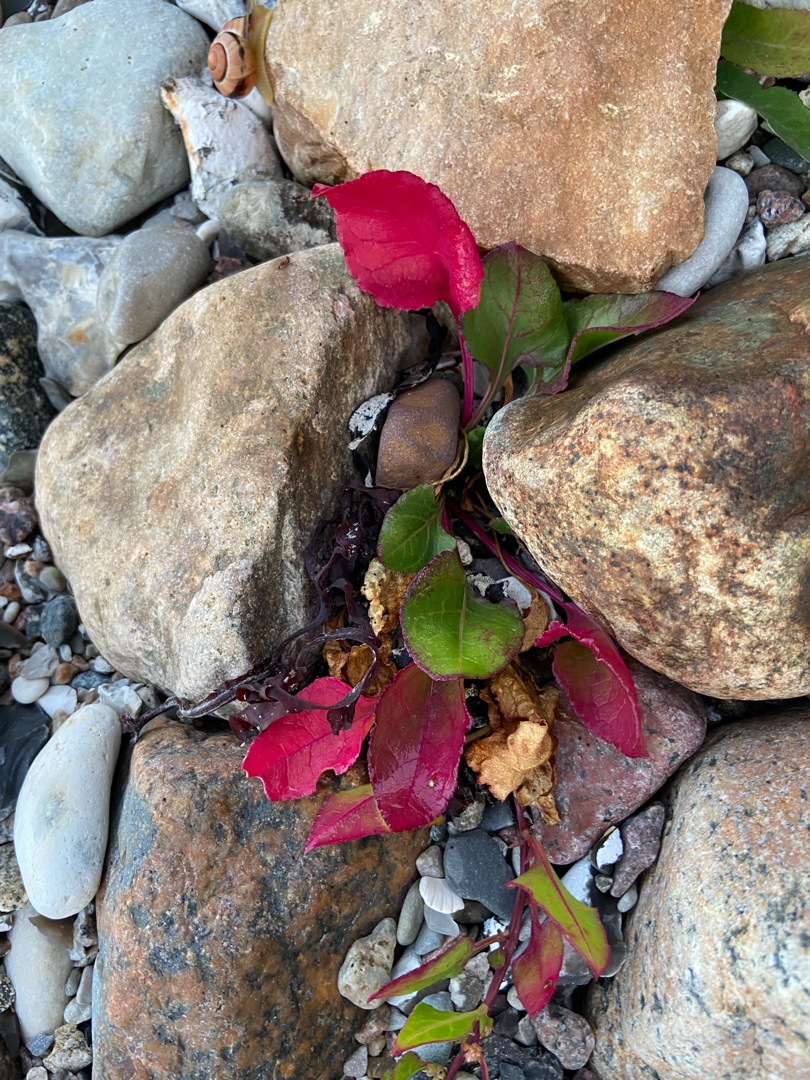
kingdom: Plantae
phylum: Tracheophyta
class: Magnoliopsida
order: Caryophyllales
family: Amaranthaceae
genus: Beta
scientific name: Beta vulgaris
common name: Bede
